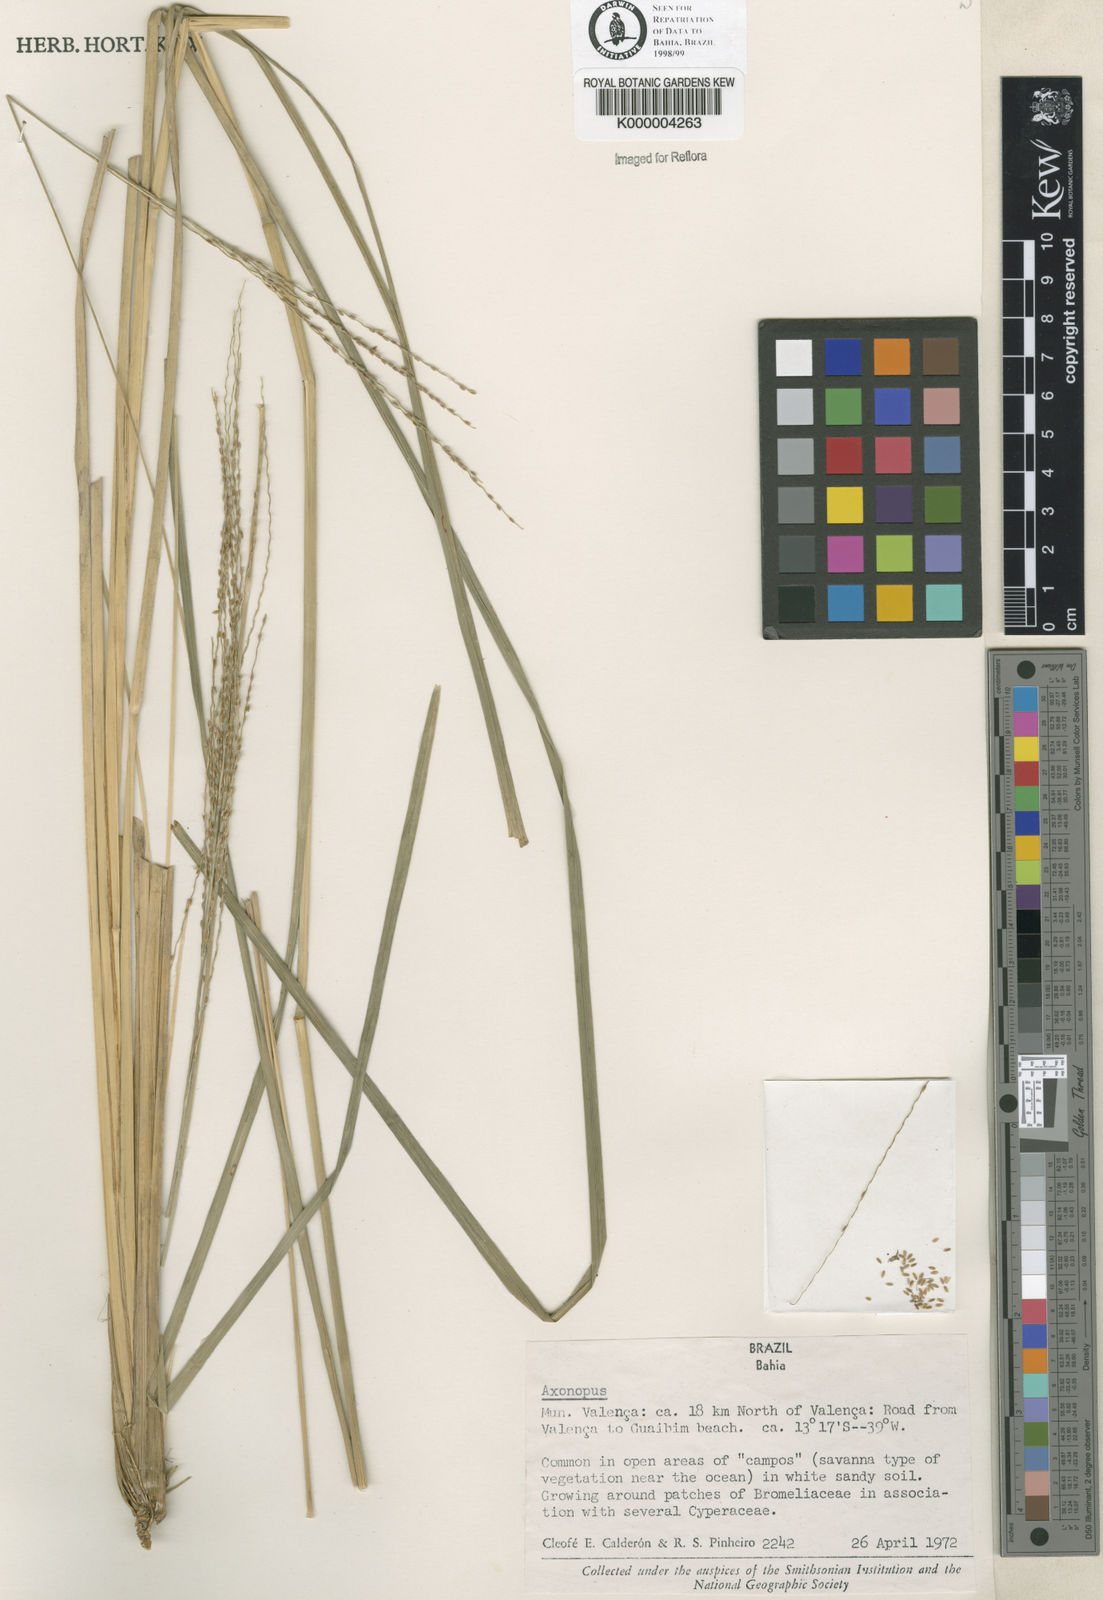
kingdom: Plantae
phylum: Tracheophyta
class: Liliopsida
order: Poales
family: Poaceae
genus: Axonopus
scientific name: Axonopus
